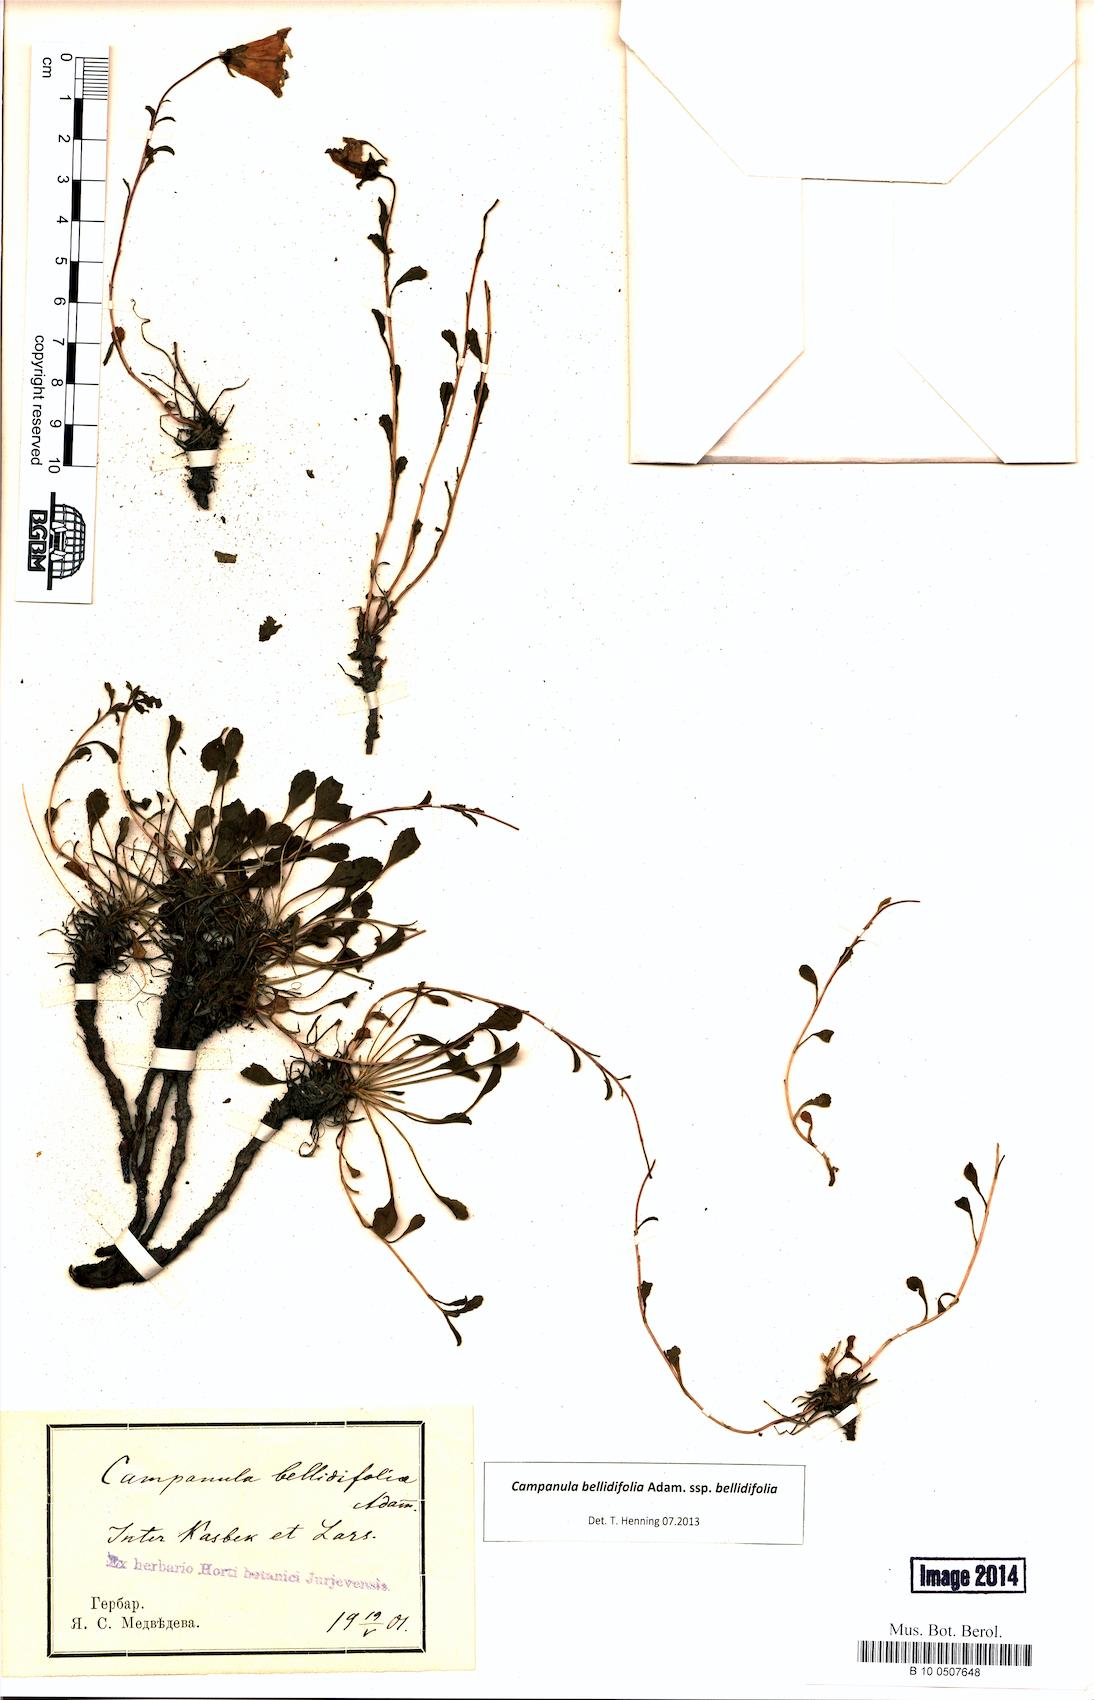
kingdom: Plantae
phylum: Tracheophyta
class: Magnoliopsida
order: Asterales
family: Campanulaceae
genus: Campanula
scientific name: Campanula bellidifolia
